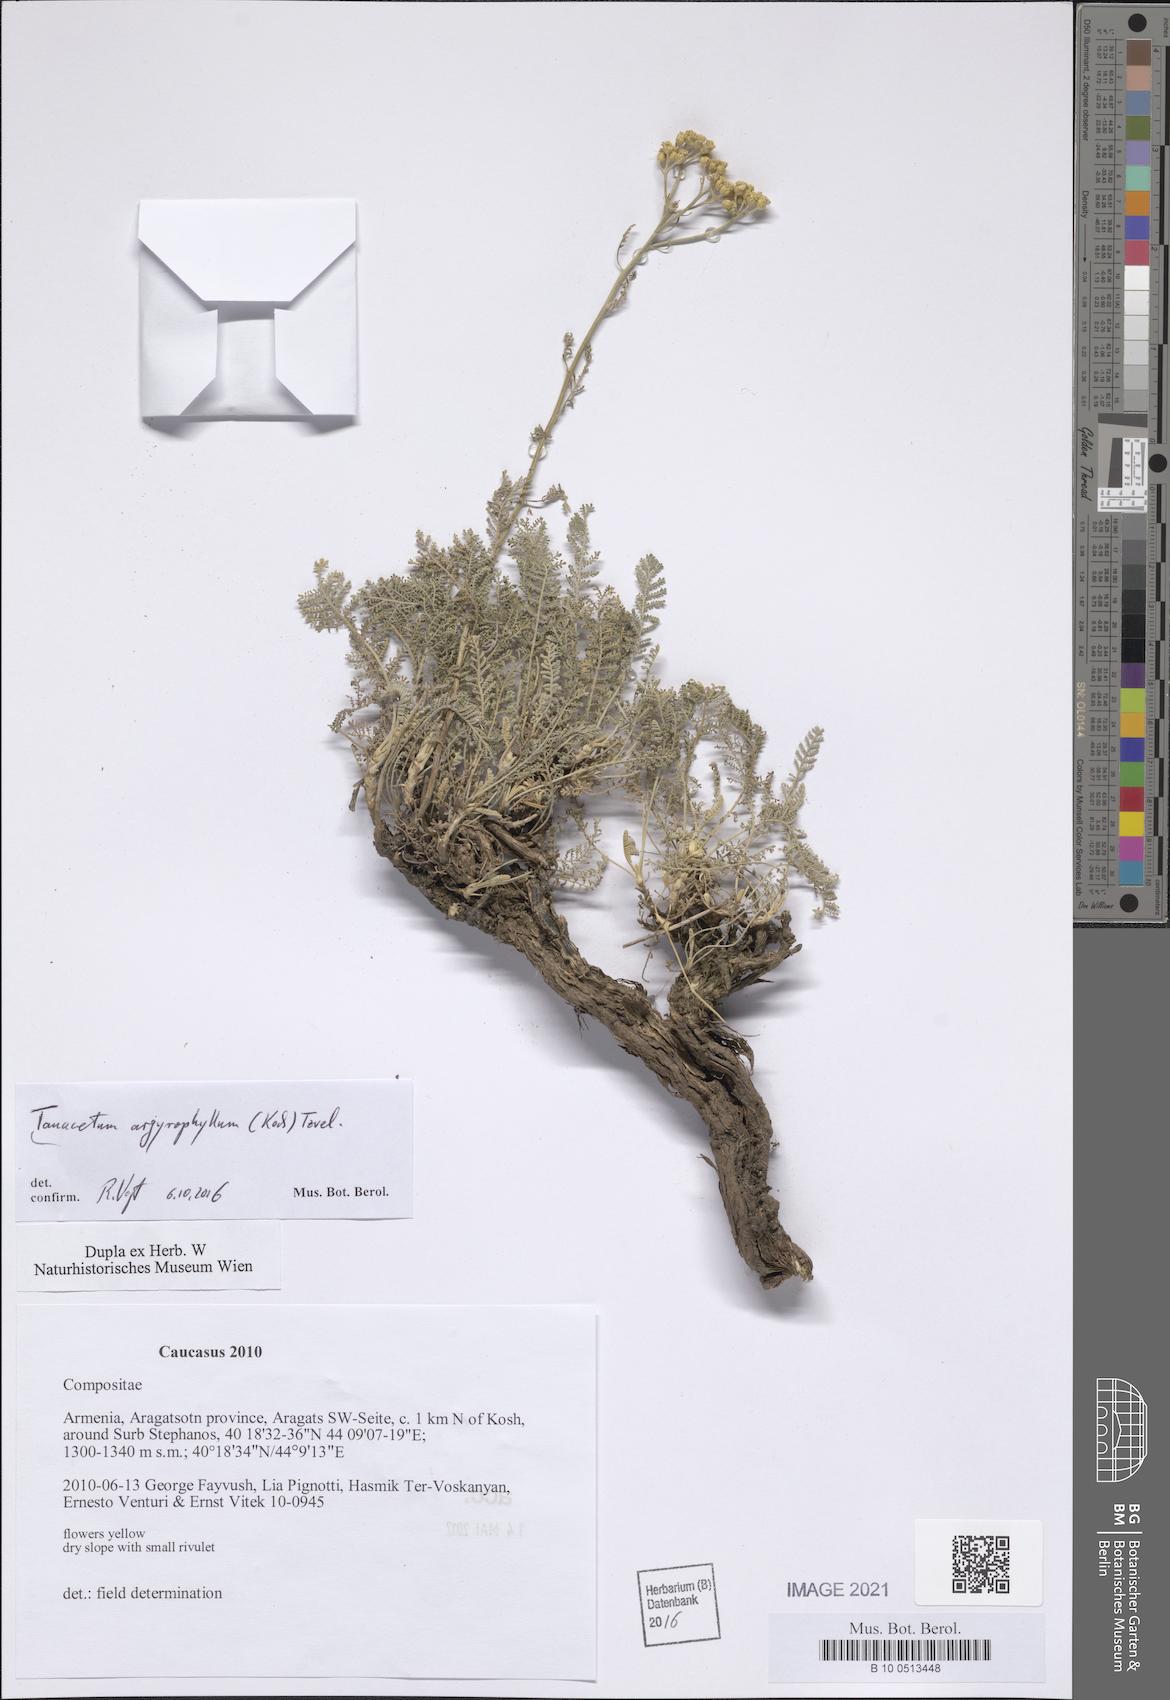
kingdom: Plantae
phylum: Tracheophyta
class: Magnoliopsida
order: Asterales
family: Asteraceae
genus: Tanacetum
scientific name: Tanacetum polycephalum
